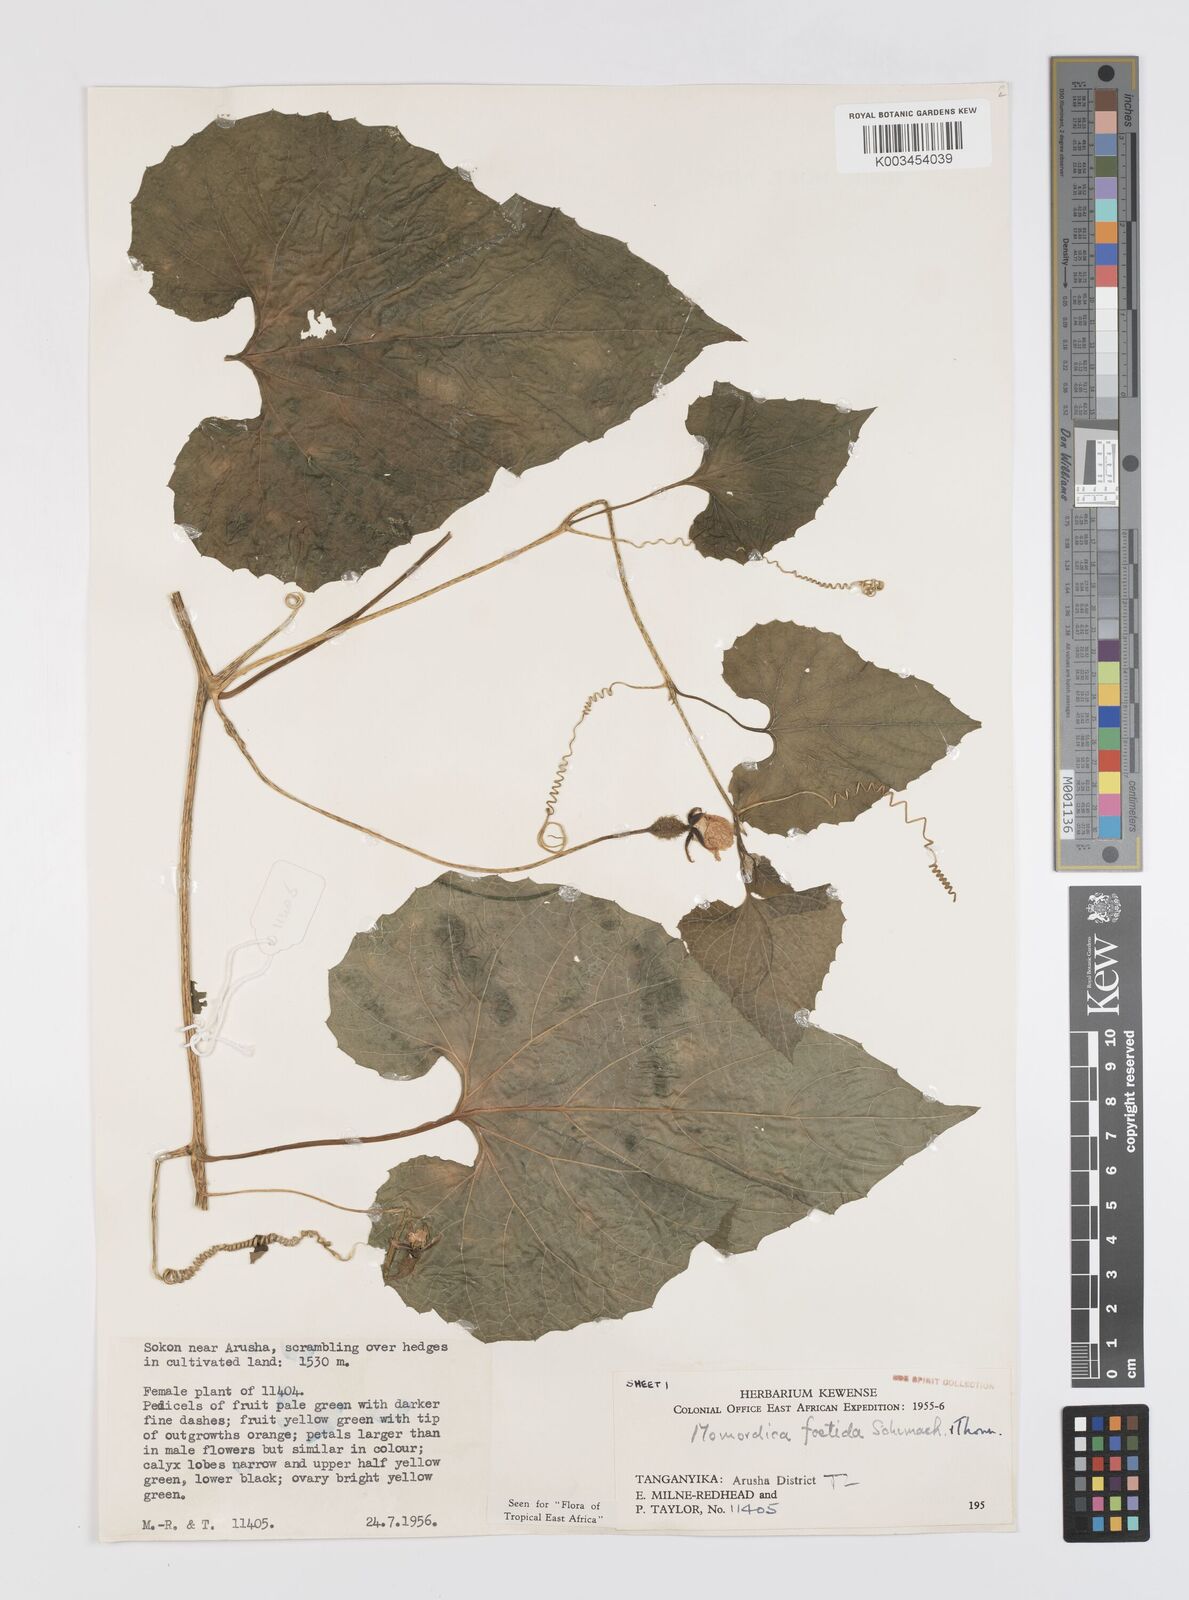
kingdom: Plantae
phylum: Tracheophyta
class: Magnoliopsida
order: Cucurbitales
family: Cucurbitaceae
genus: Momordica
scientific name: Momordica foetida
